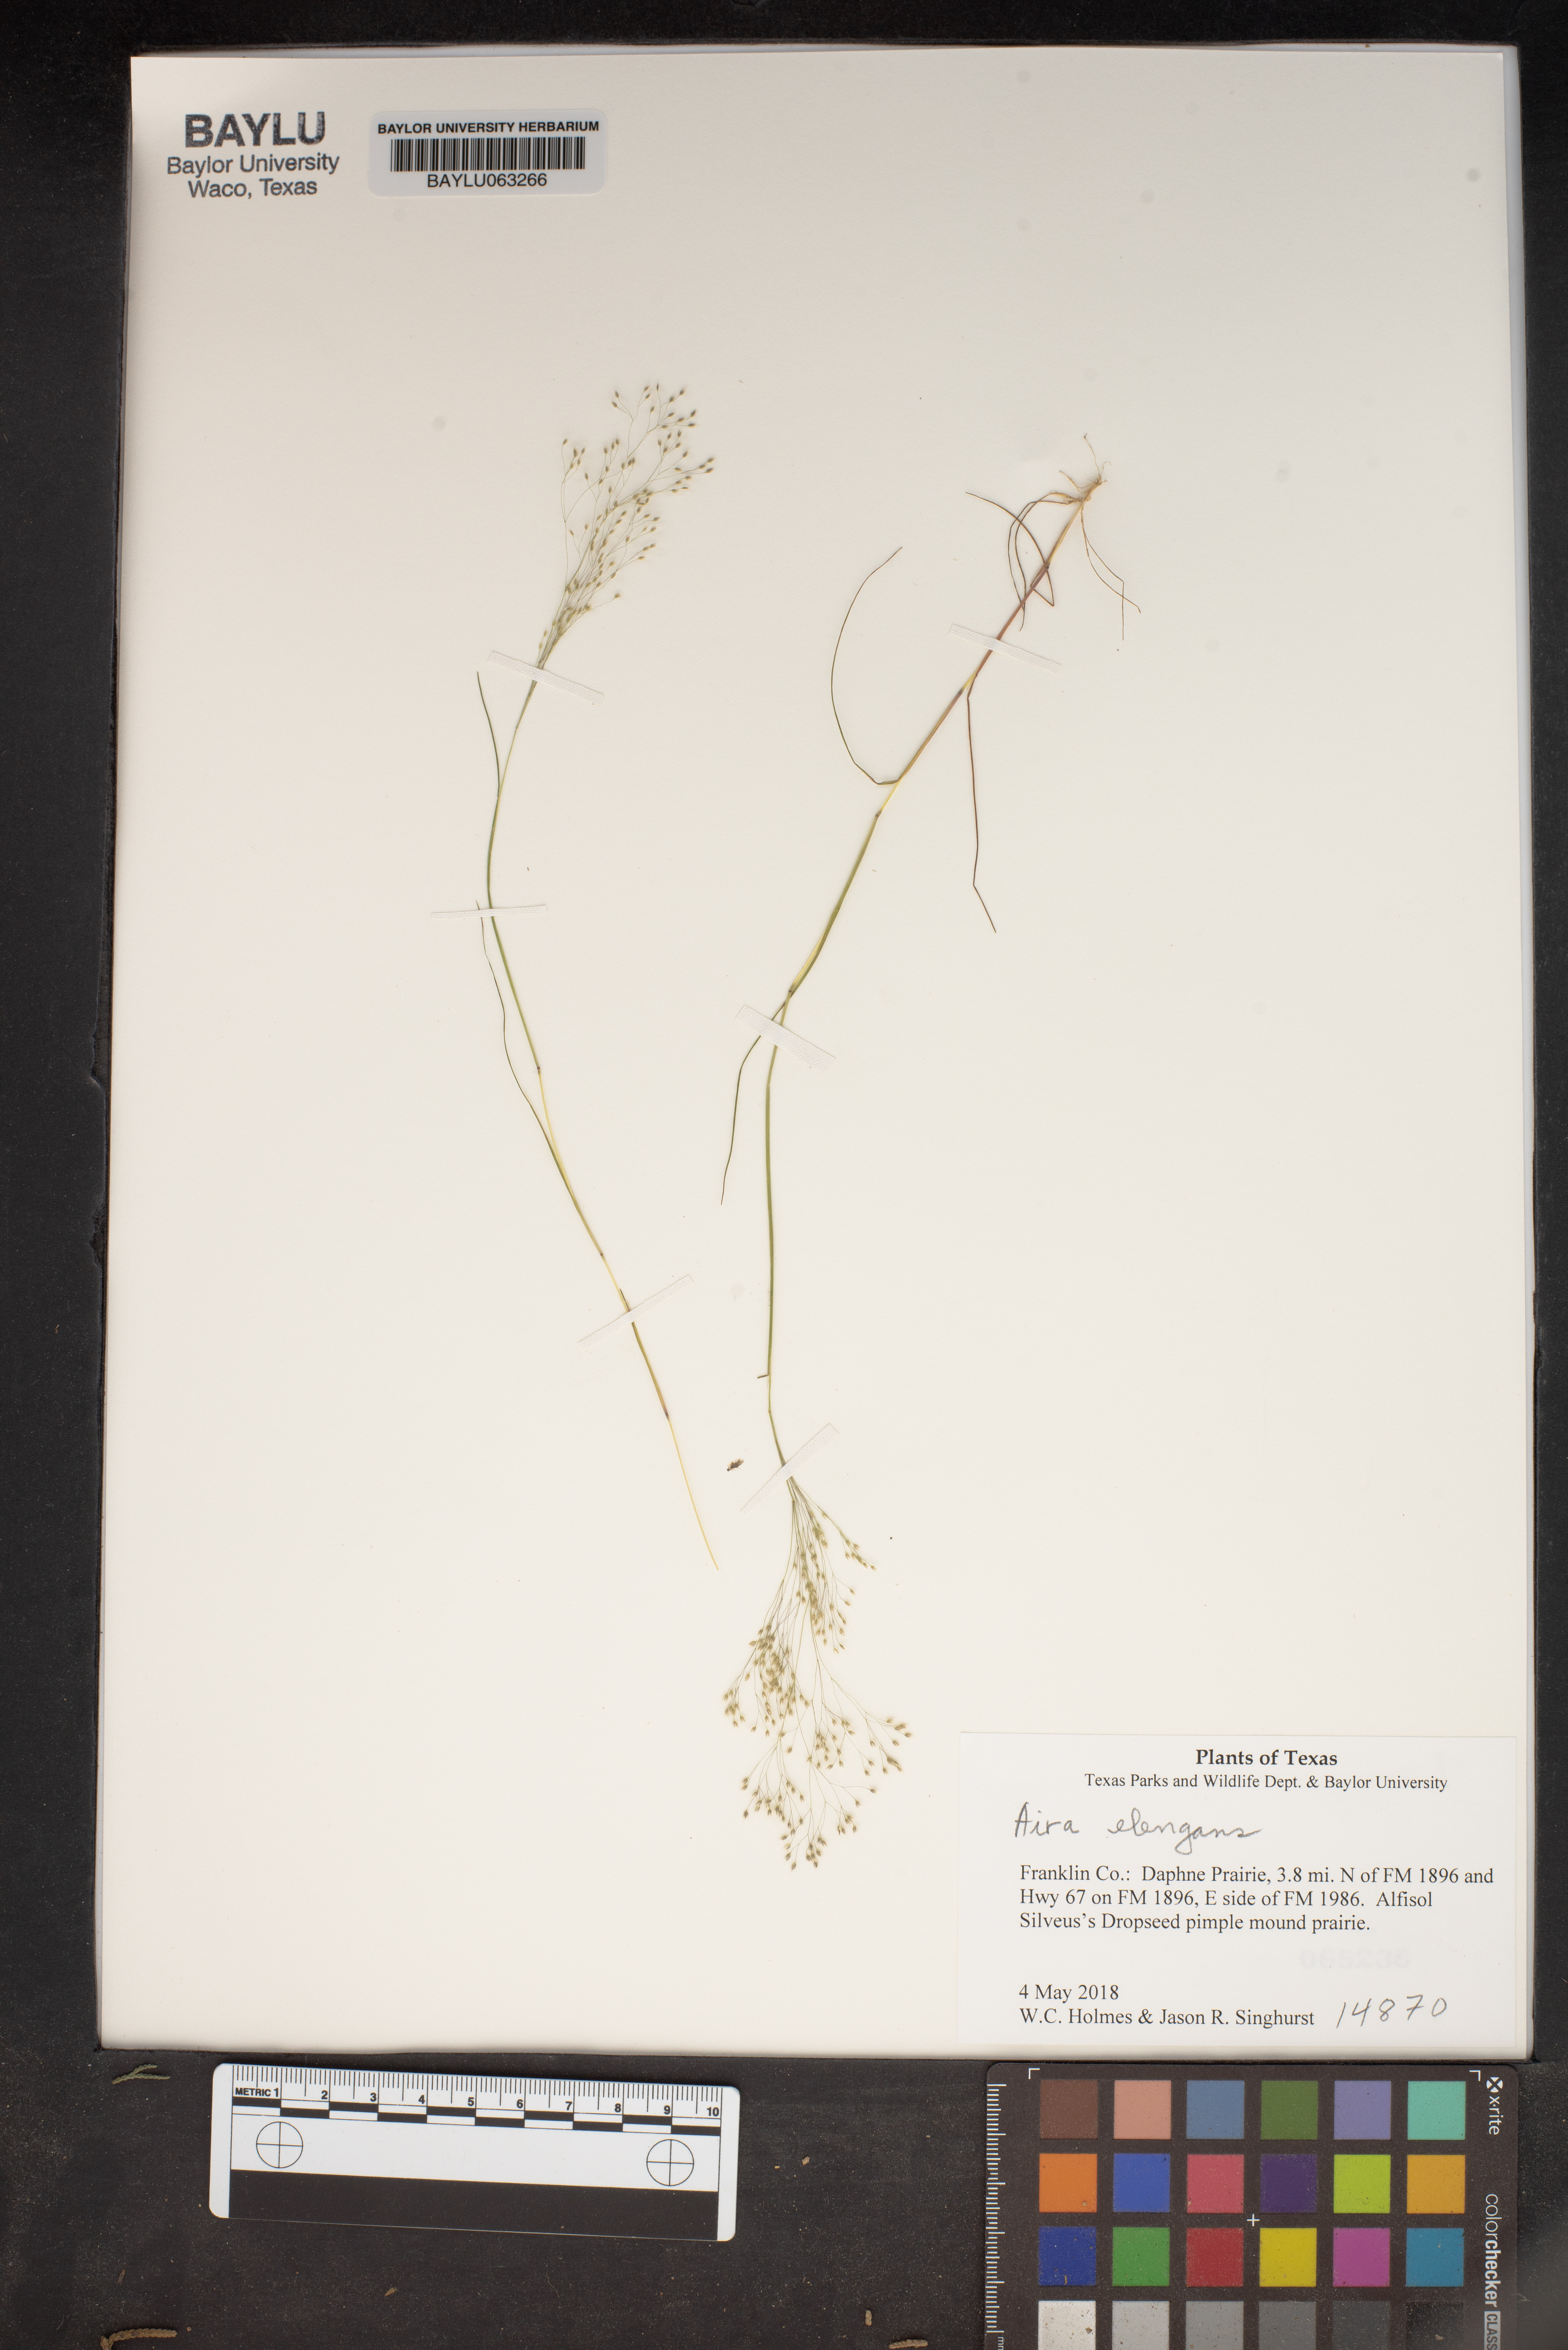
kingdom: Plantae
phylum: Tracheophyta
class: Liliopsida
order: Poales
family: Poaceae
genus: Aira
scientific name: Aira elegans
